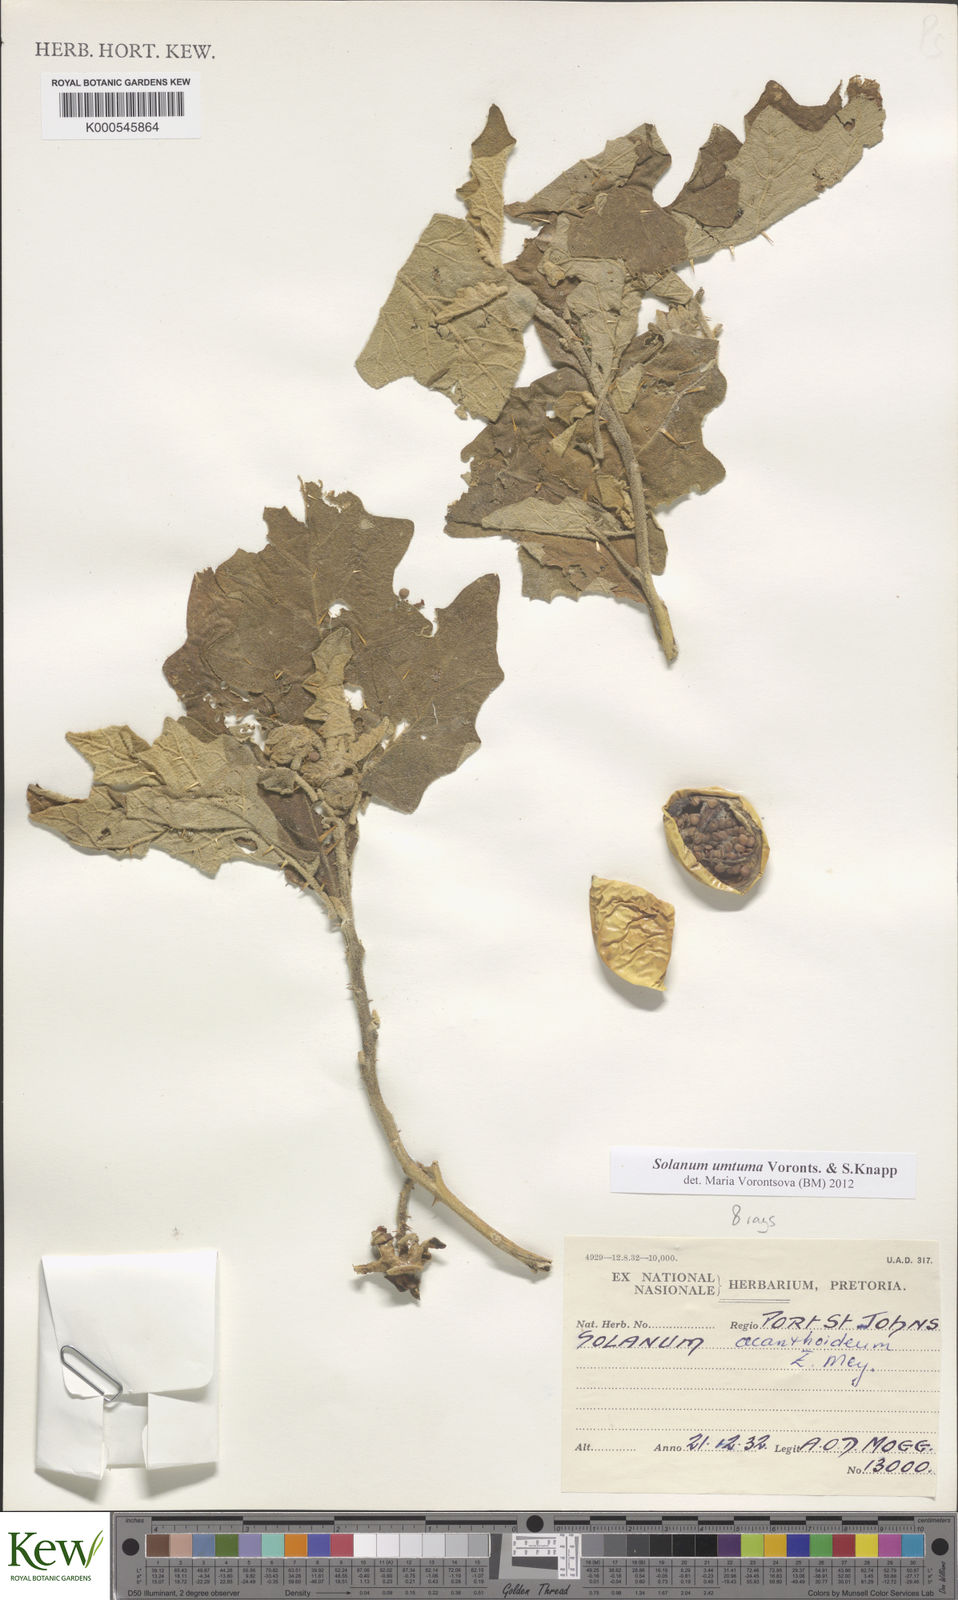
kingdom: Plantae
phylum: Tracheophyta
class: Magnoliopsida
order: Solanales
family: Solanaceae
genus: Solanum
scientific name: Solanum umtuma
